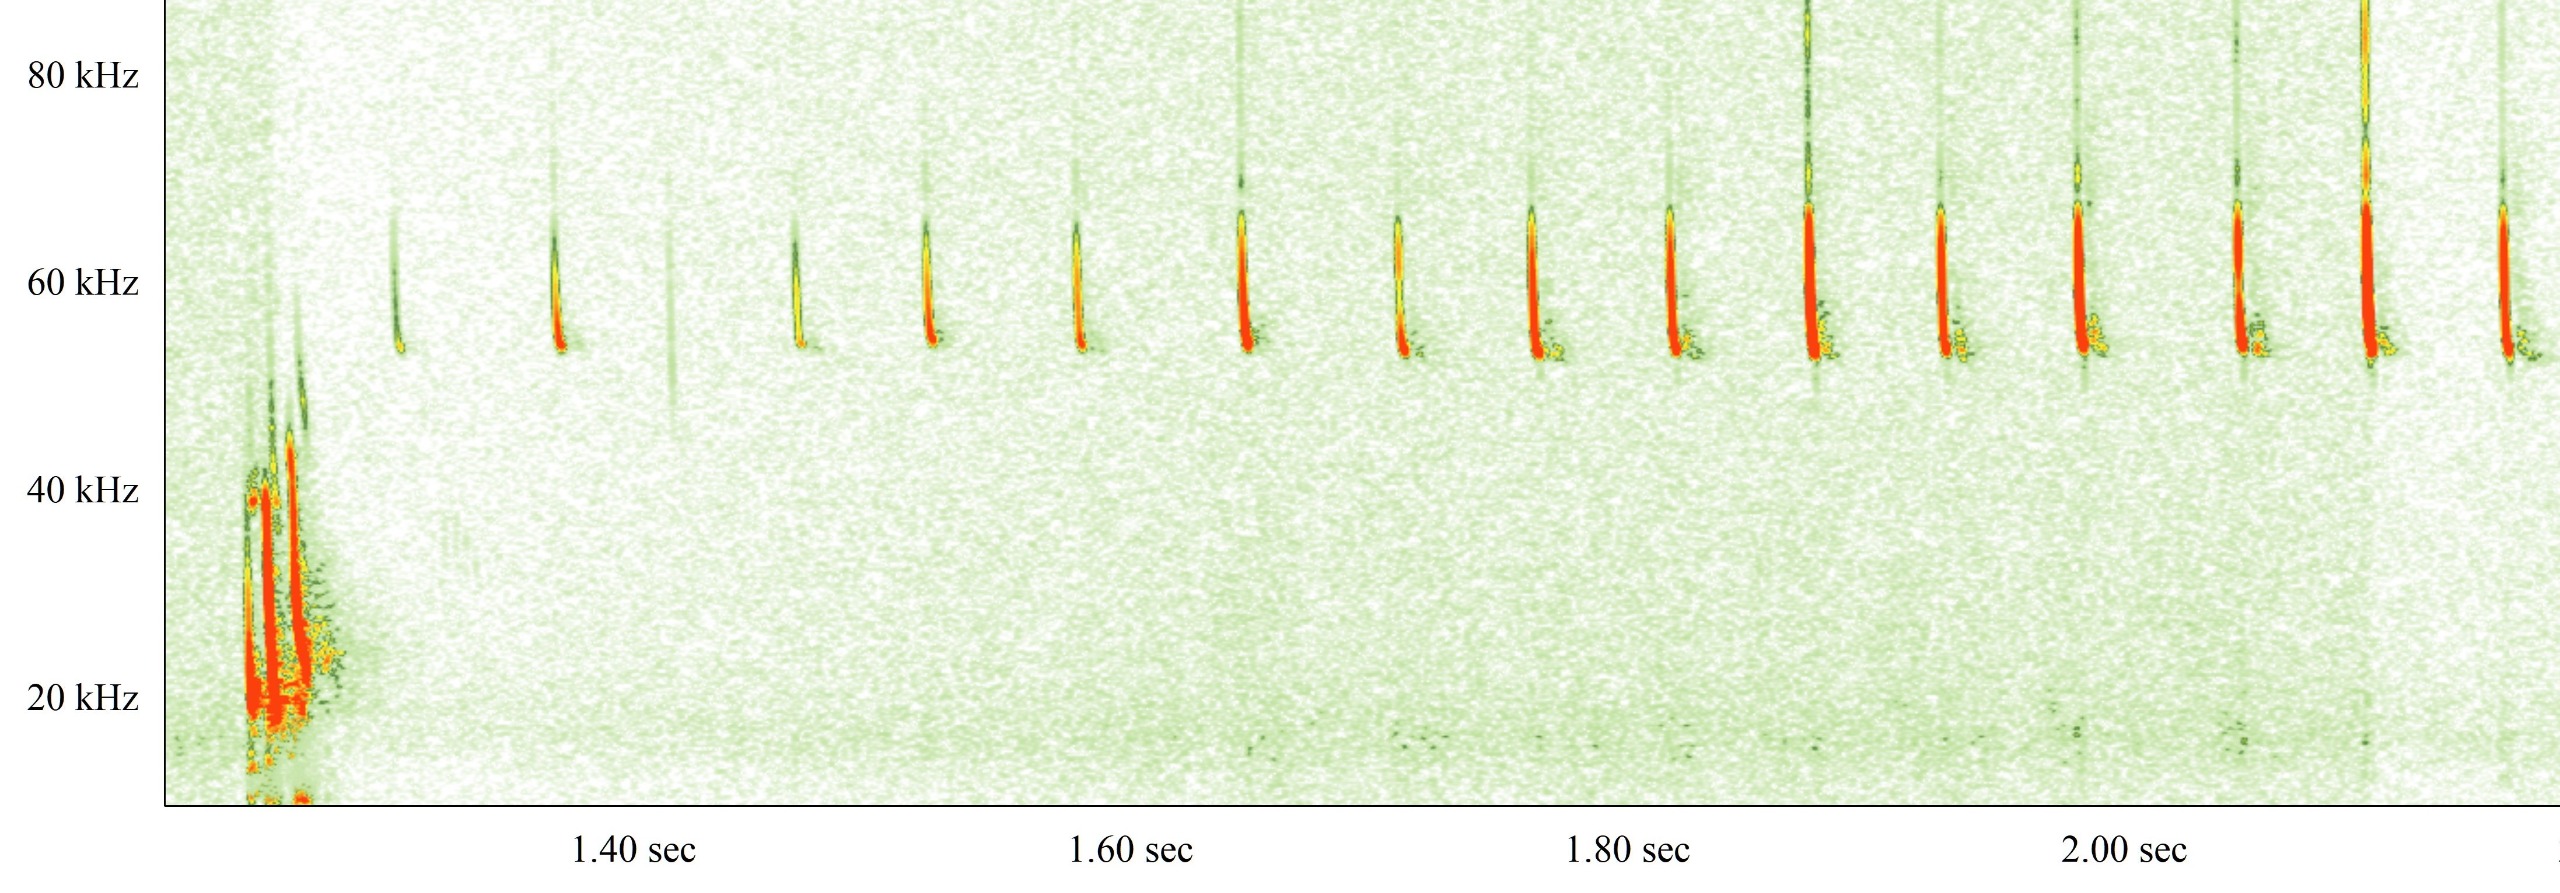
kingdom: Animalia
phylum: Chordata
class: Mammalia
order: Chiroptera
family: Vespertilionidae
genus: Pipistrellus
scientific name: Pipistrellus pygmaeus
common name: Dværgflagermus
